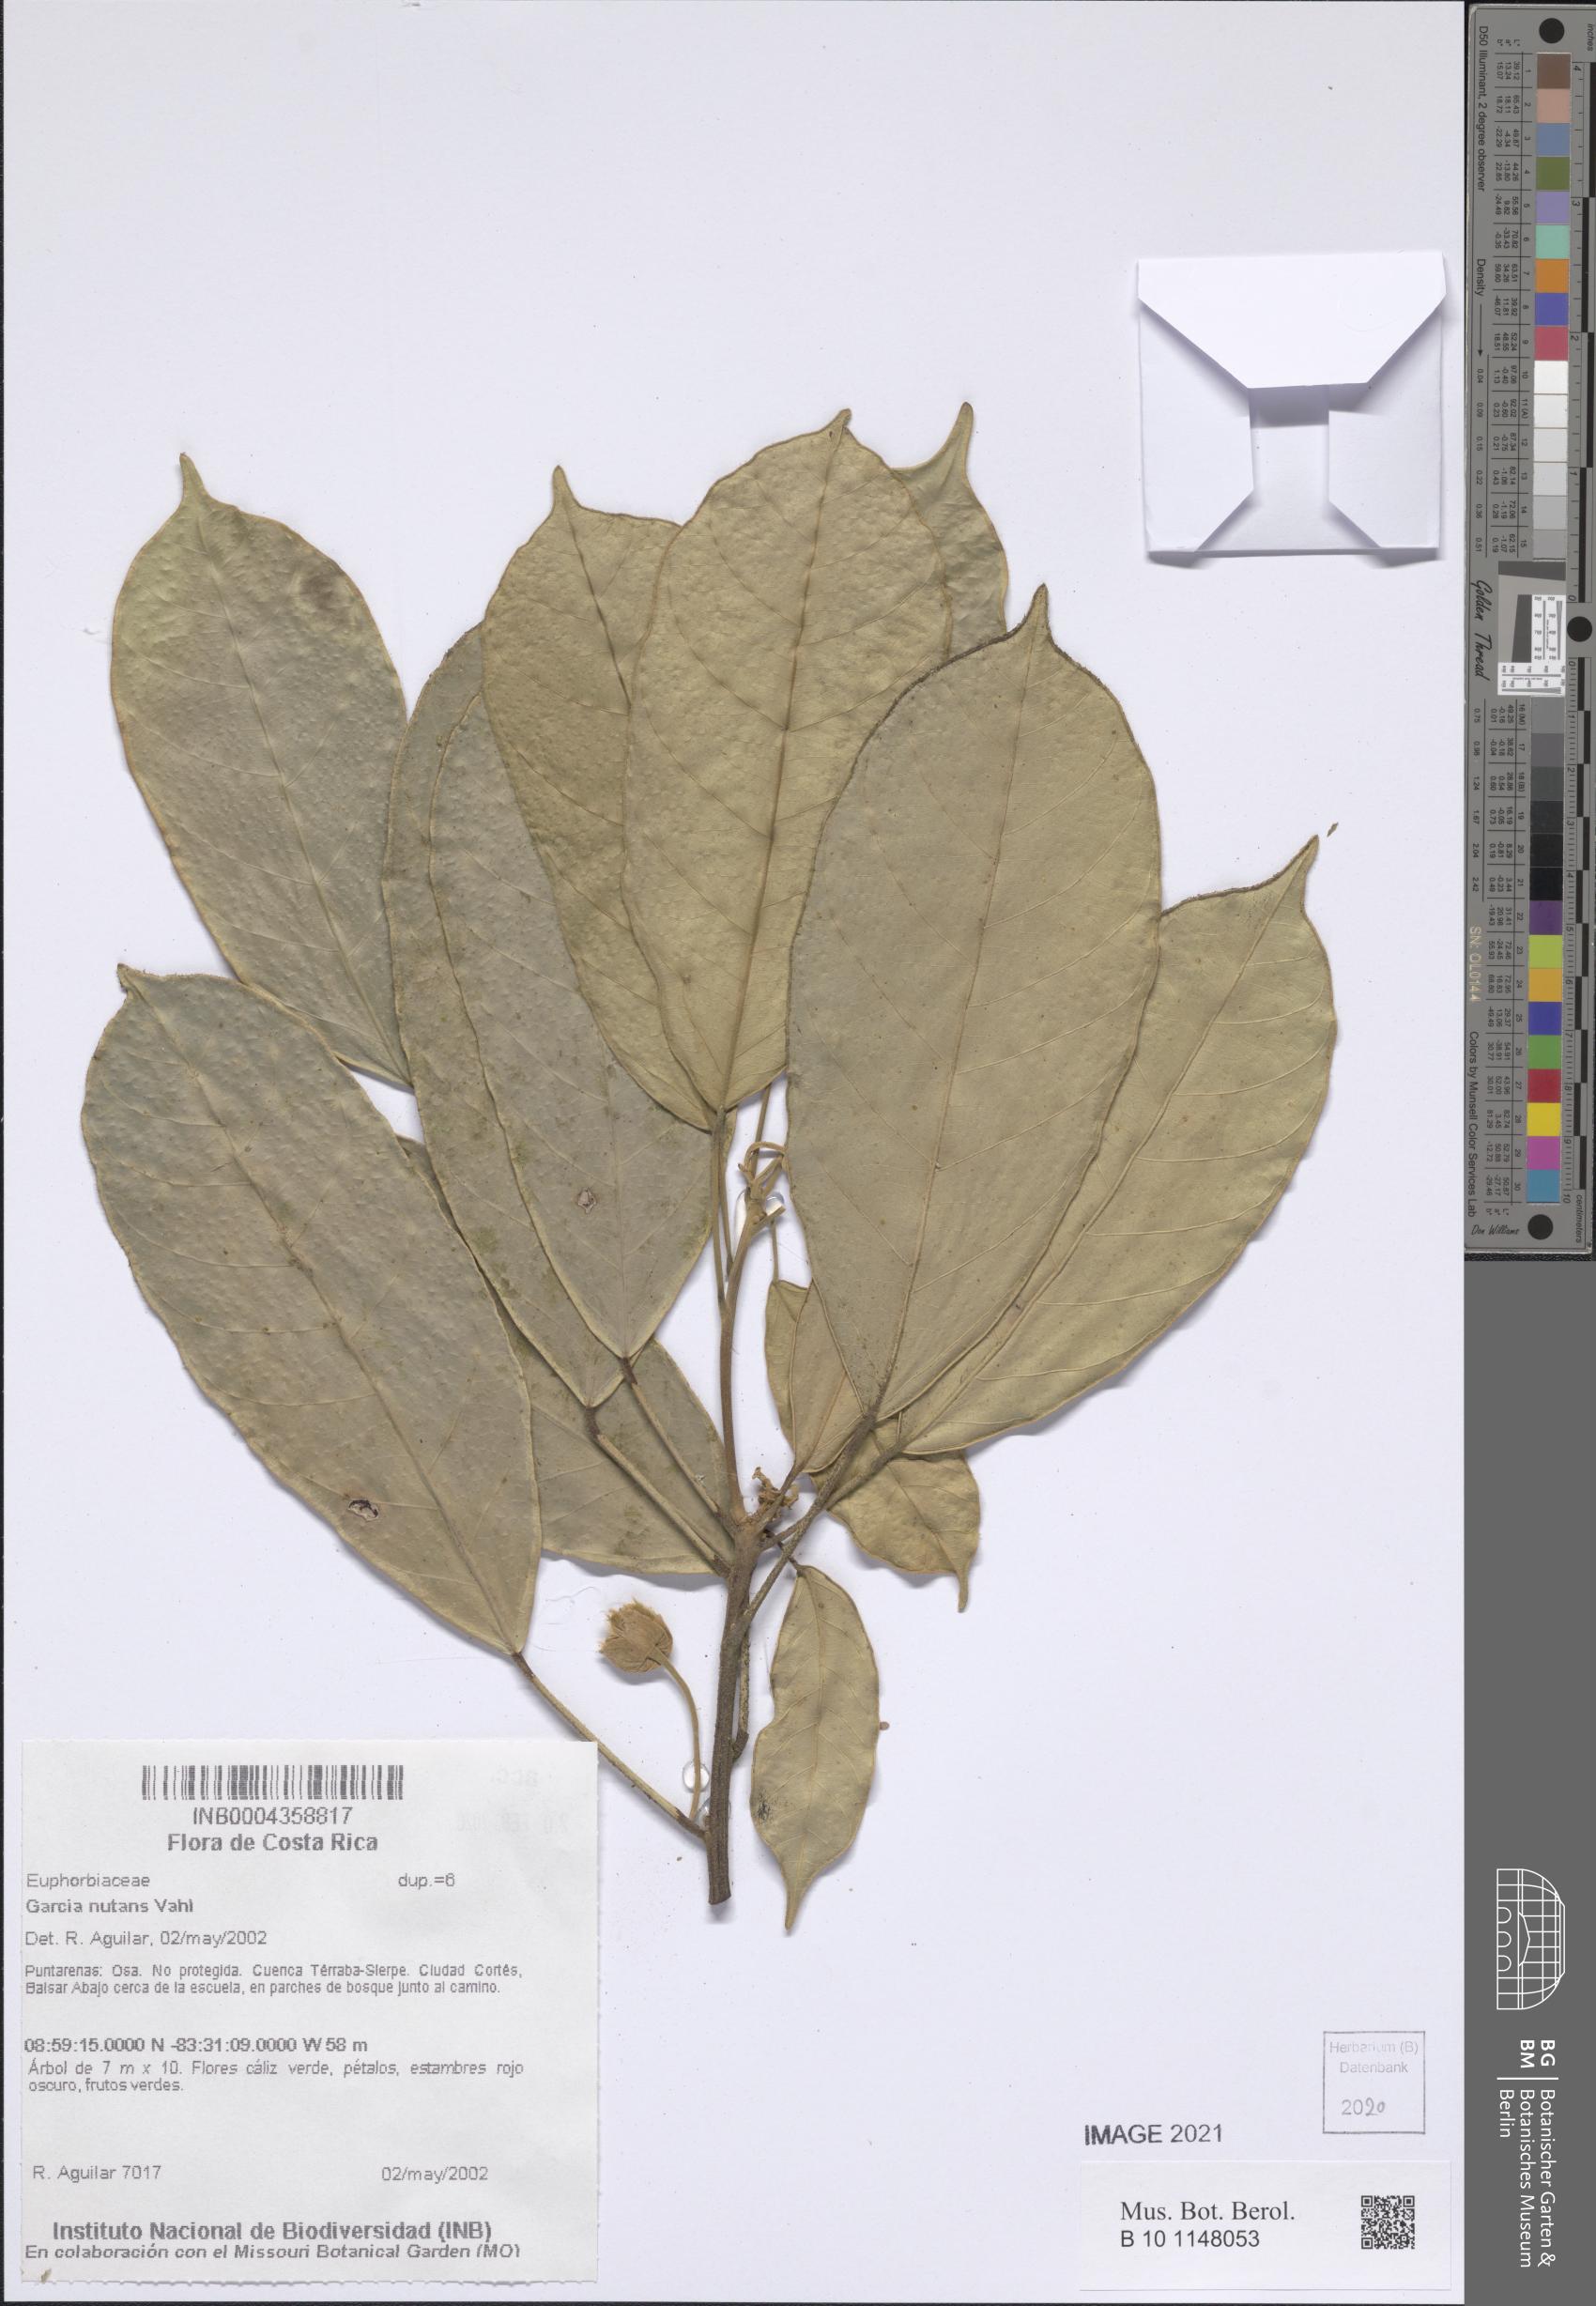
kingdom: Plantae
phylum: Tracheophyta
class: Magnoliopsida
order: Malpighiales
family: Euphorbiaceae
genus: Garcia
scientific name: Garcia nutans
